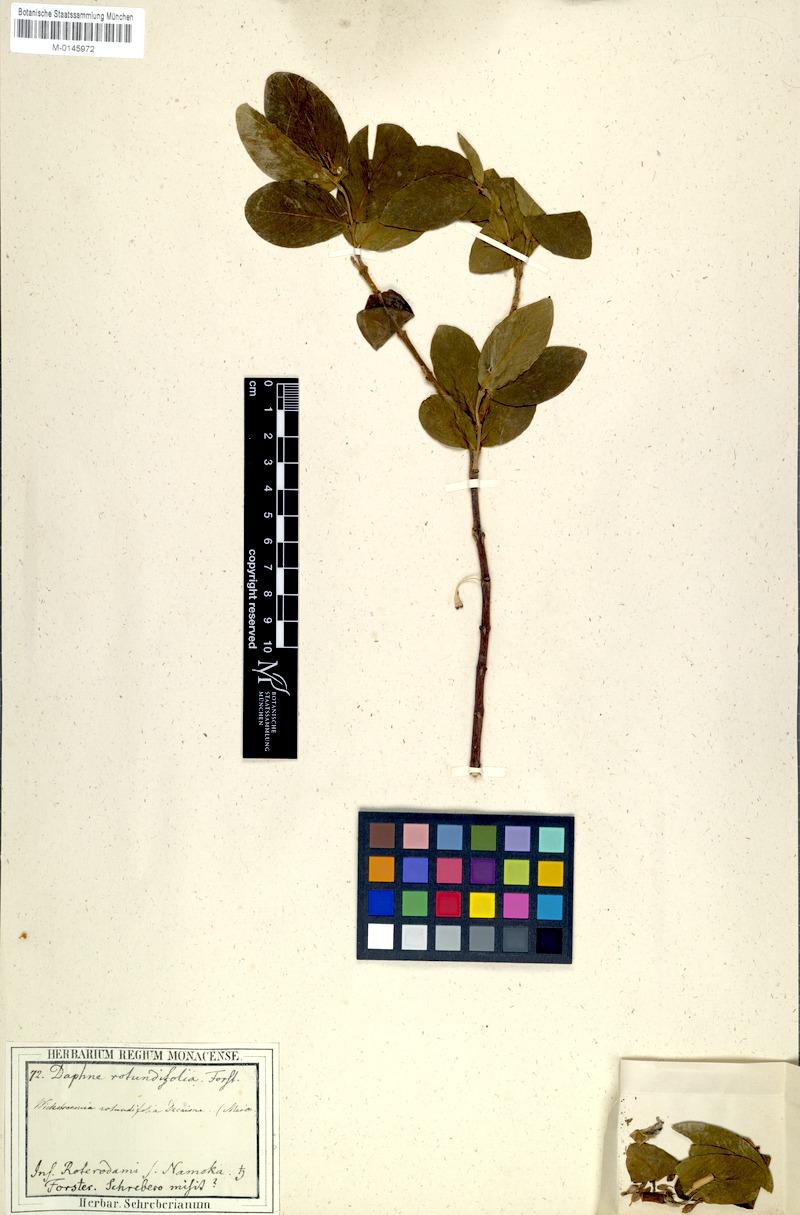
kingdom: Plantae
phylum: Tracheophyta
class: Magnoliopsida
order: Malvales
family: Thymelaeaceae
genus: Wikstroemia
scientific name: Wikstroemia indica
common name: Tiebush
